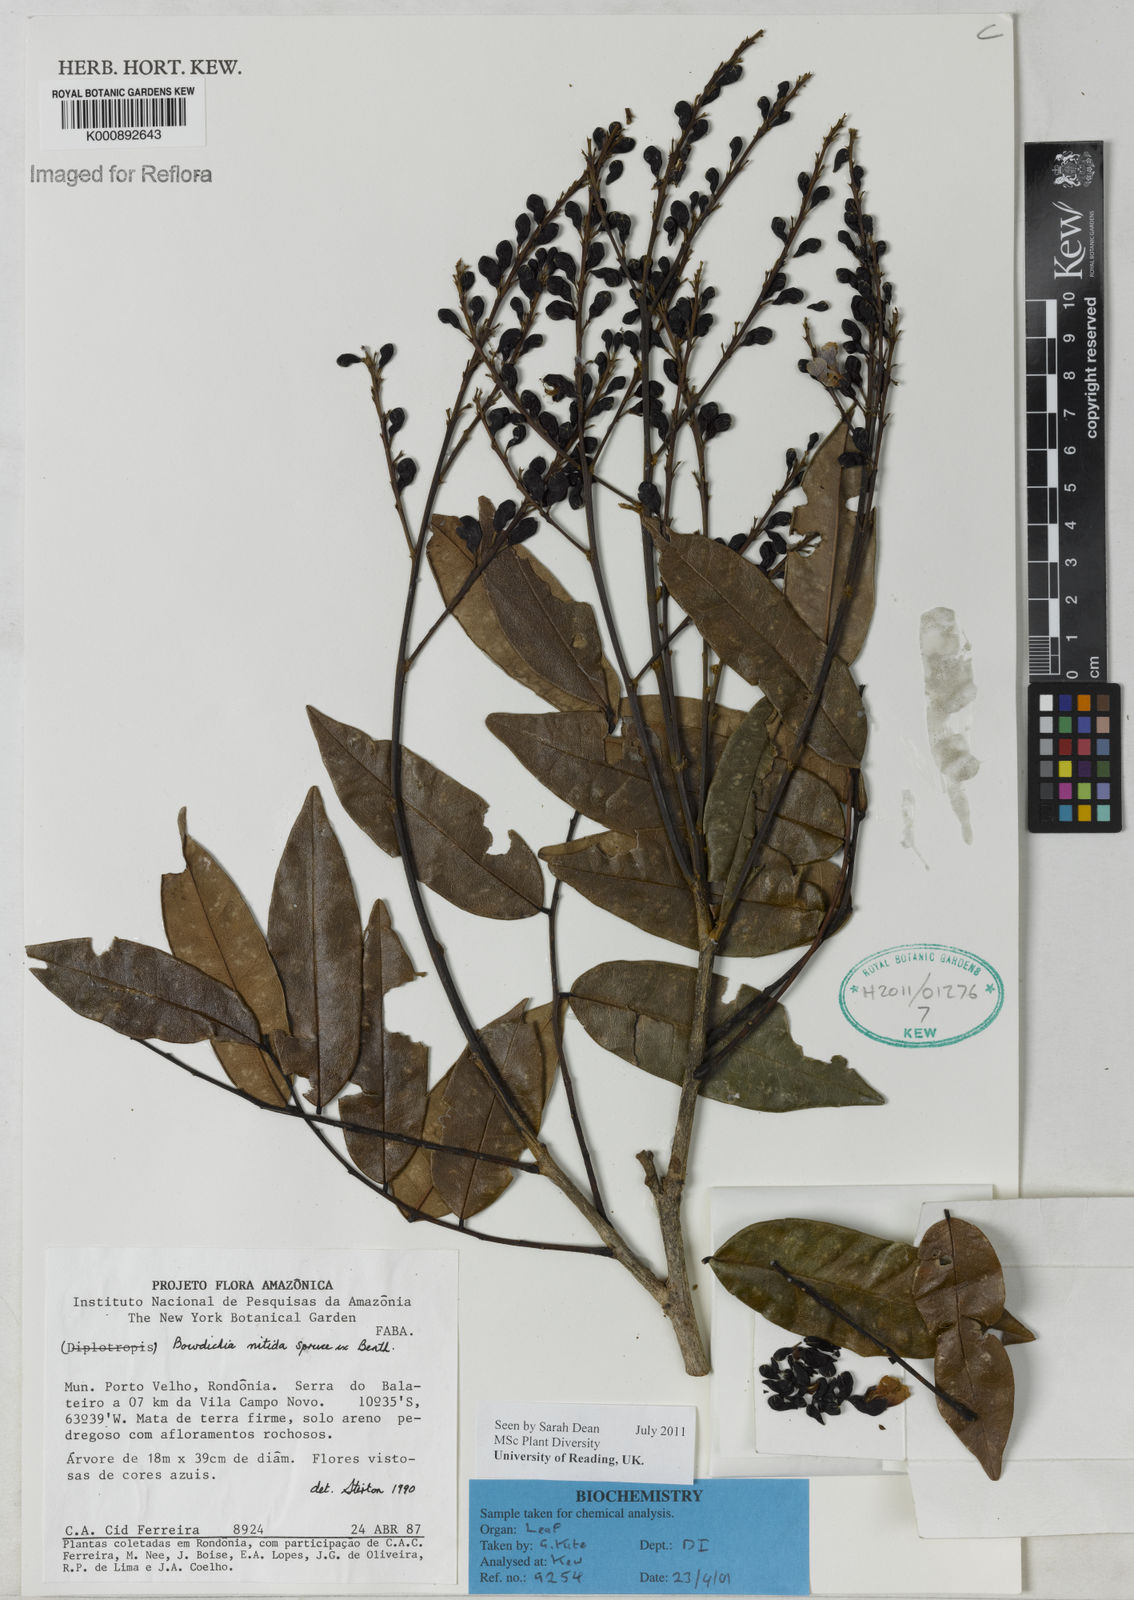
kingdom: Plantae
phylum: Tracheophyta
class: Magnoliopsida
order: Fabales
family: Fabaceae
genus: Bowdichia
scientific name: Bowdichia nitida
